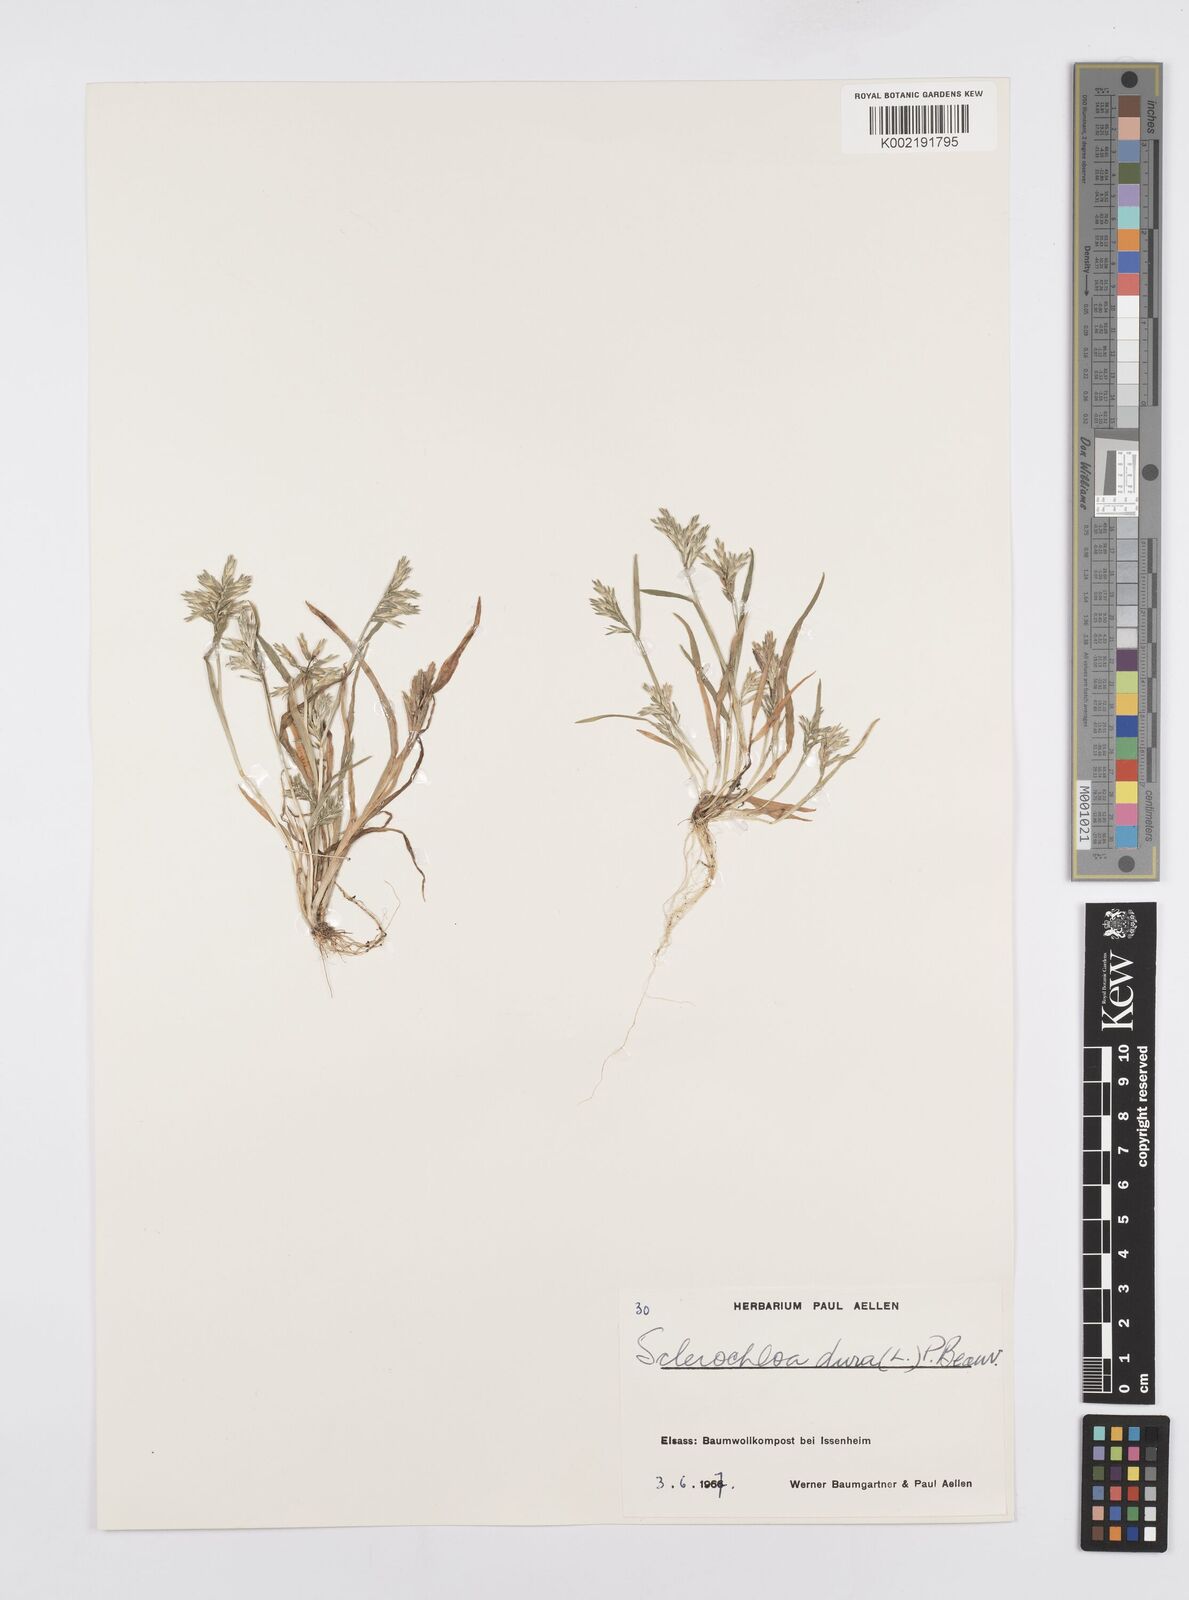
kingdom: Plantae
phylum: Tracheophyta
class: Liliopsida
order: Poales
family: Poaceae
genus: Sclerochloa
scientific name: Sclerochloa dura
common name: Common hardgrass
